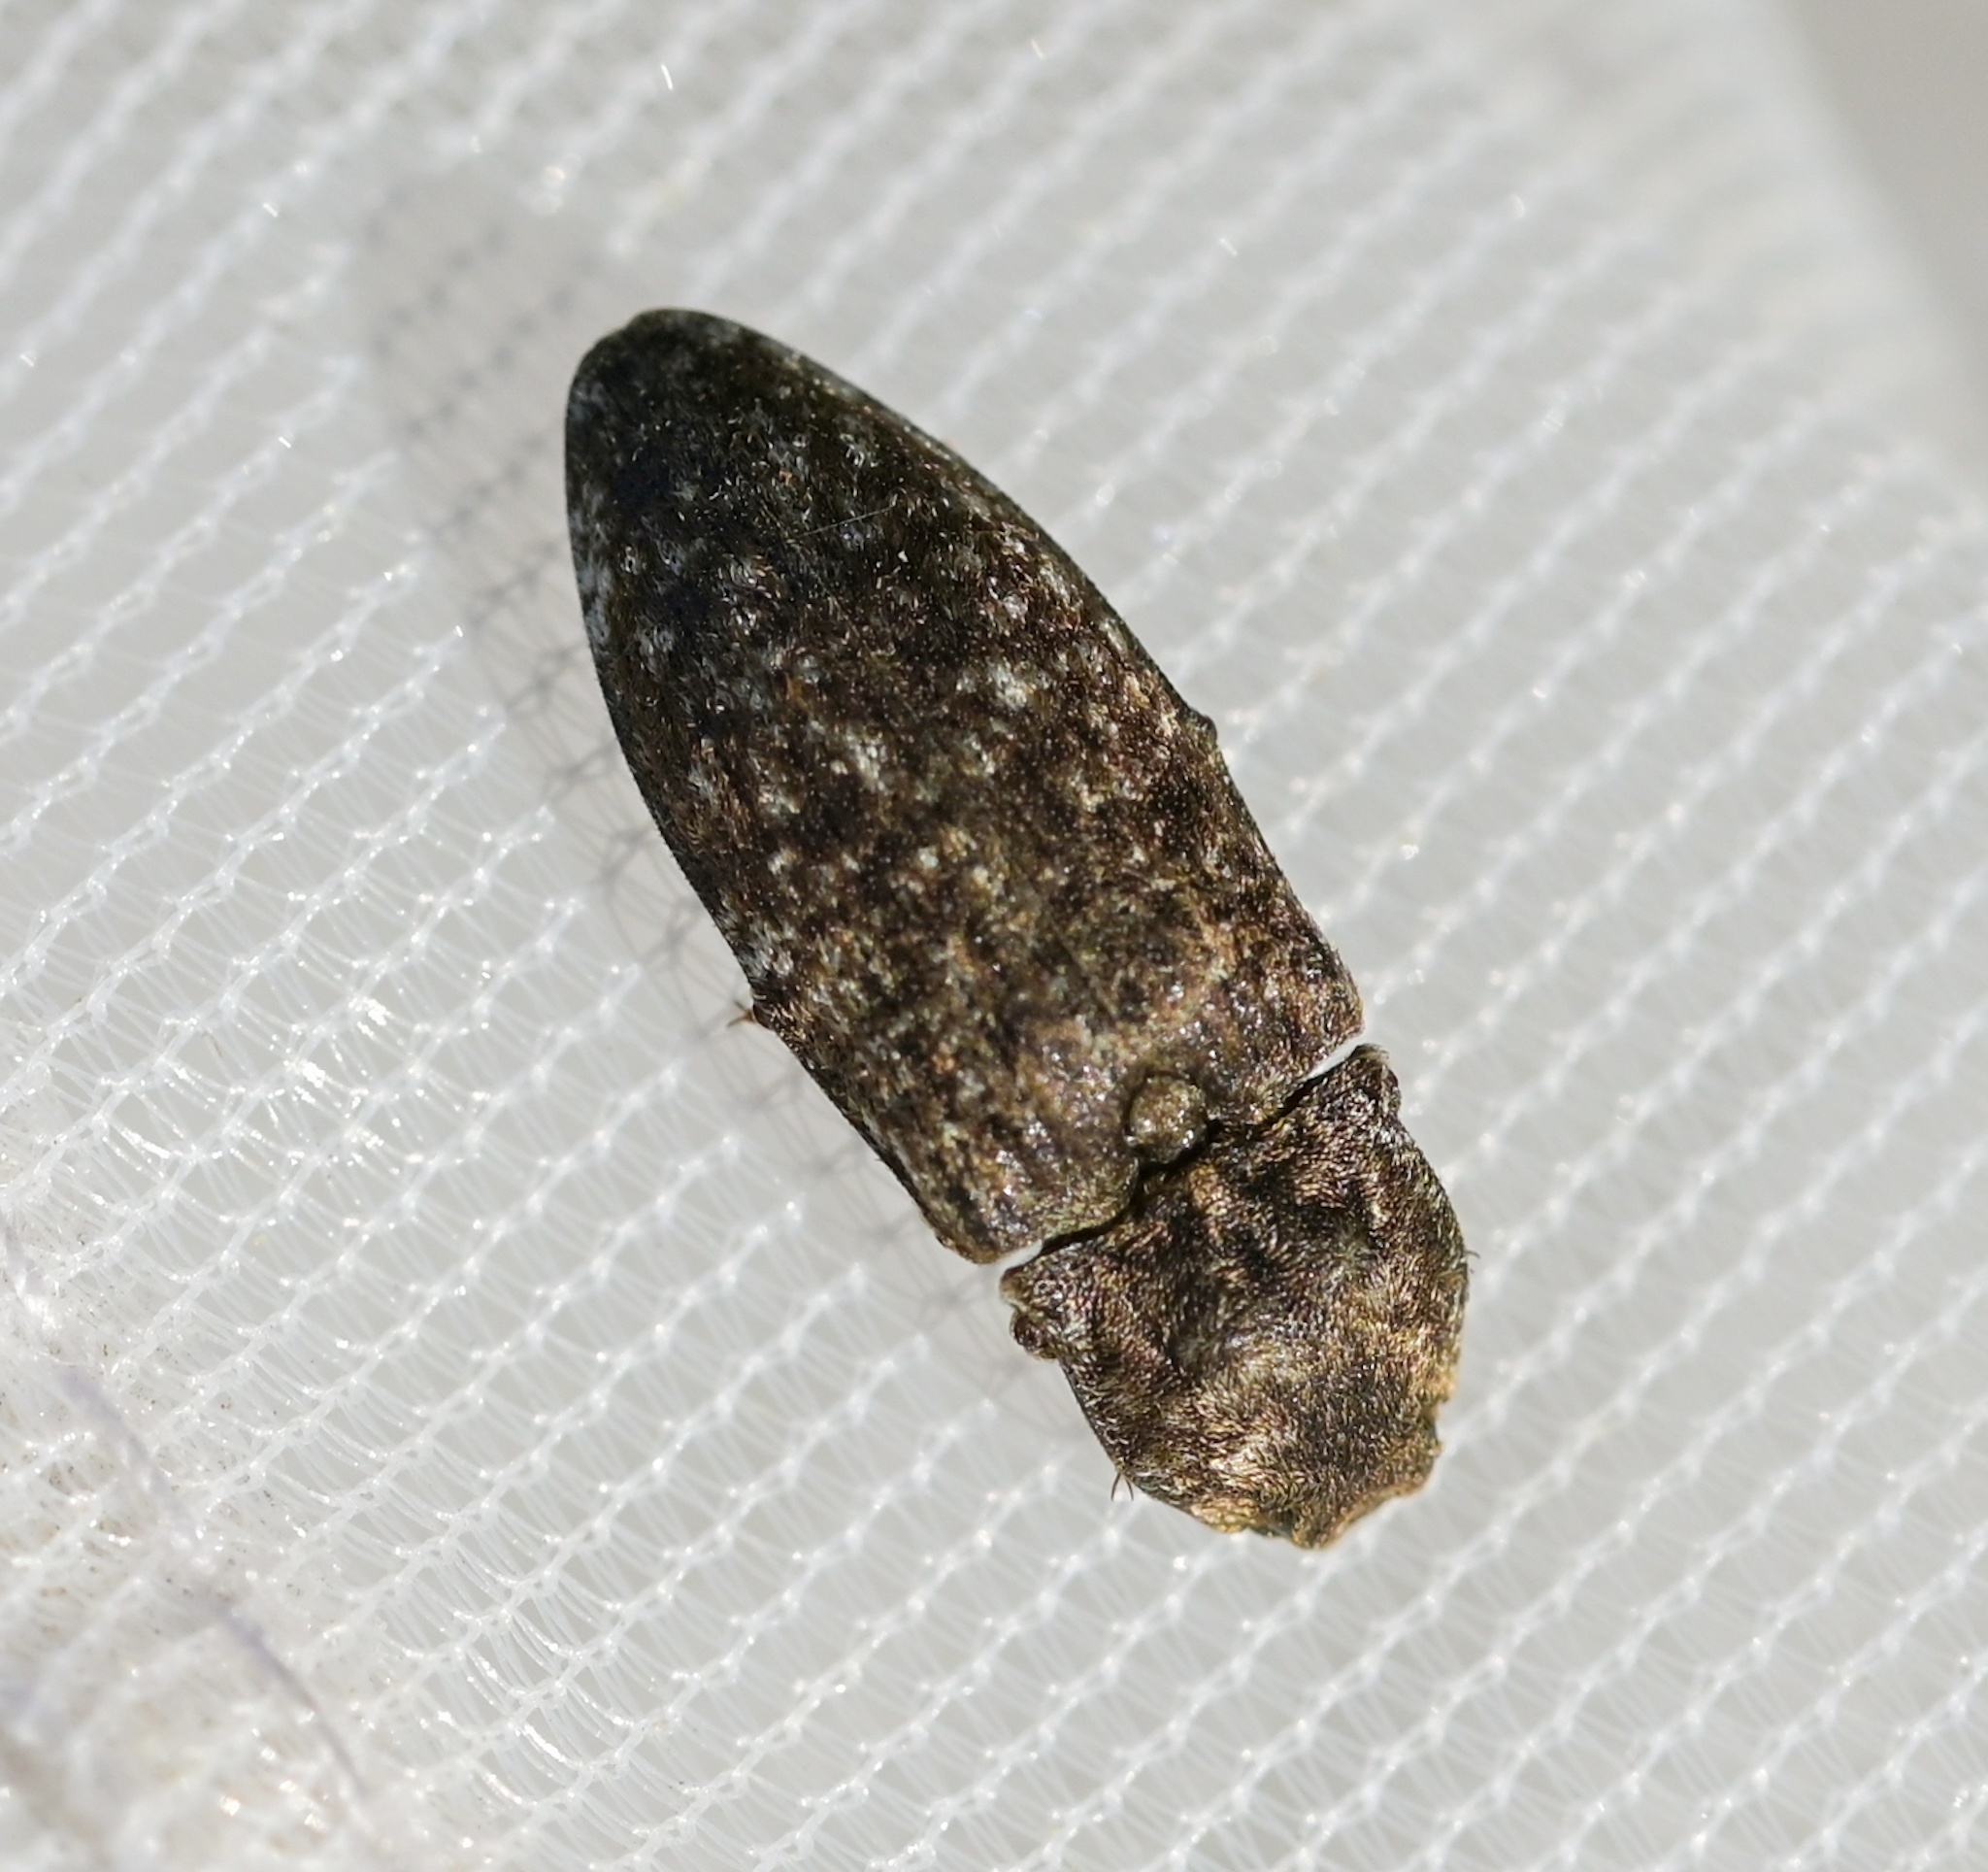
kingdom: Animalia
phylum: Arthropoda
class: Insecta
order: Coleoptera
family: Elateridae
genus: Agrypnus
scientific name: Agrypnus murinus
